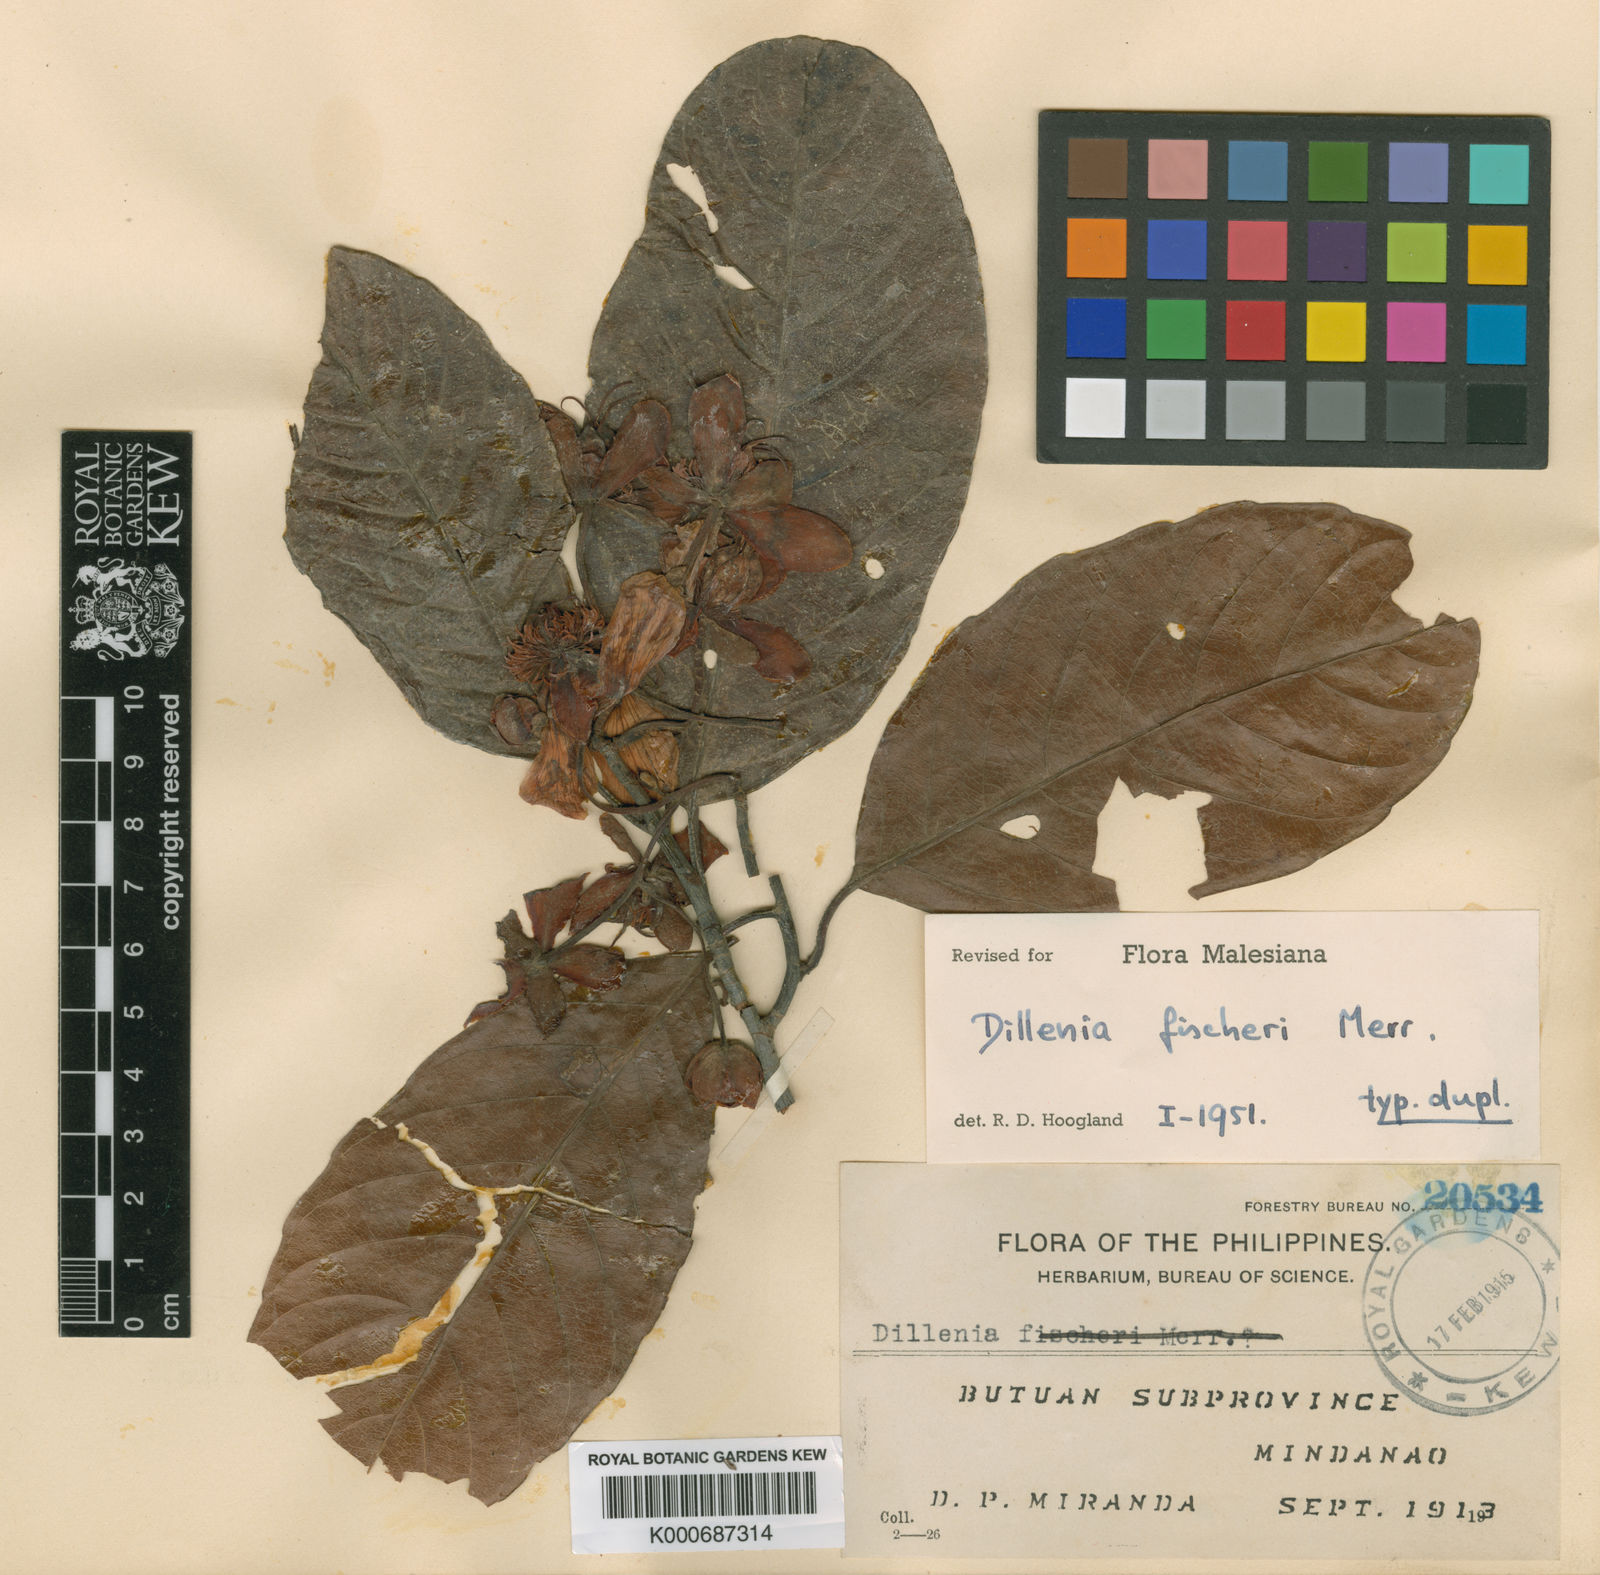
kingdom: Plantae
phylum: Tracheophyta
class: Magnoliopsida
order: Dilleniales
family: Dilleniaceae
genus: Dillenia
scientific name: Dillenia
